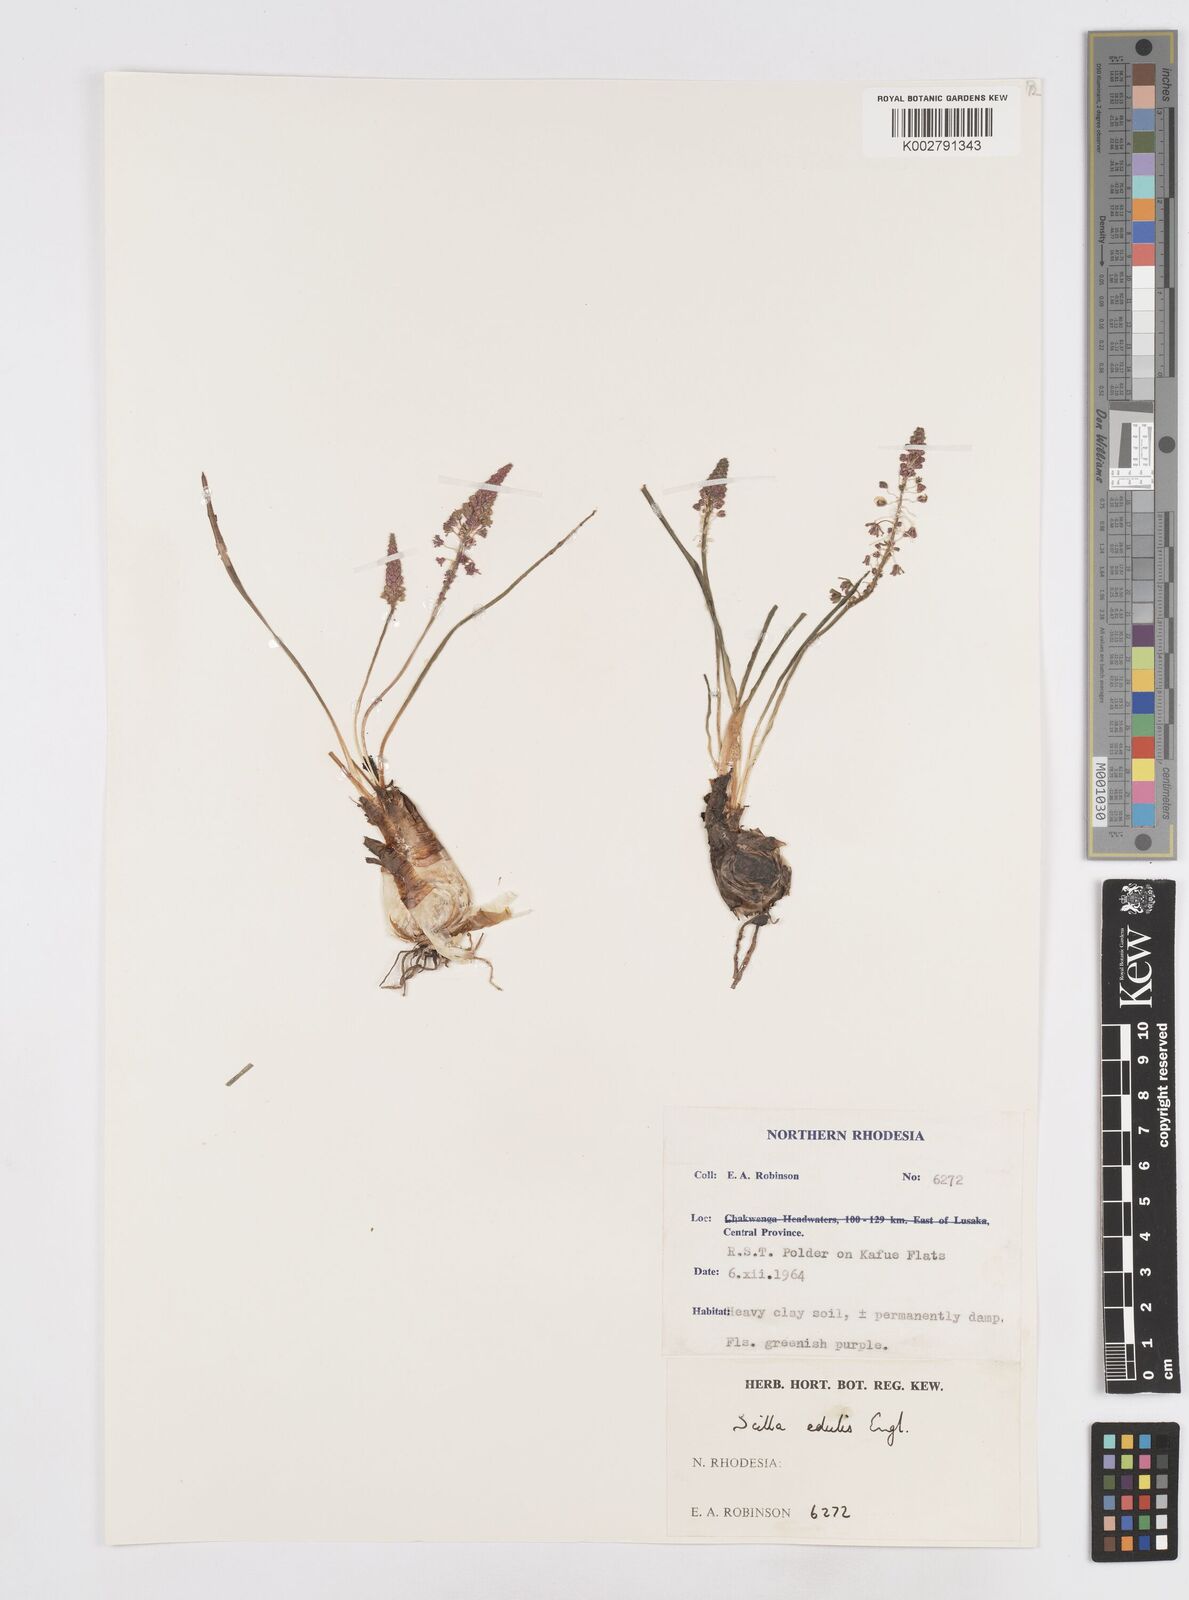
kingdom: Plantae
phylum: Tracheophyta
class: Liliopsida
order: Asparagales
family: Asparagaceae
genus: Ledebouria
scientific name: Ledebouria edulis
